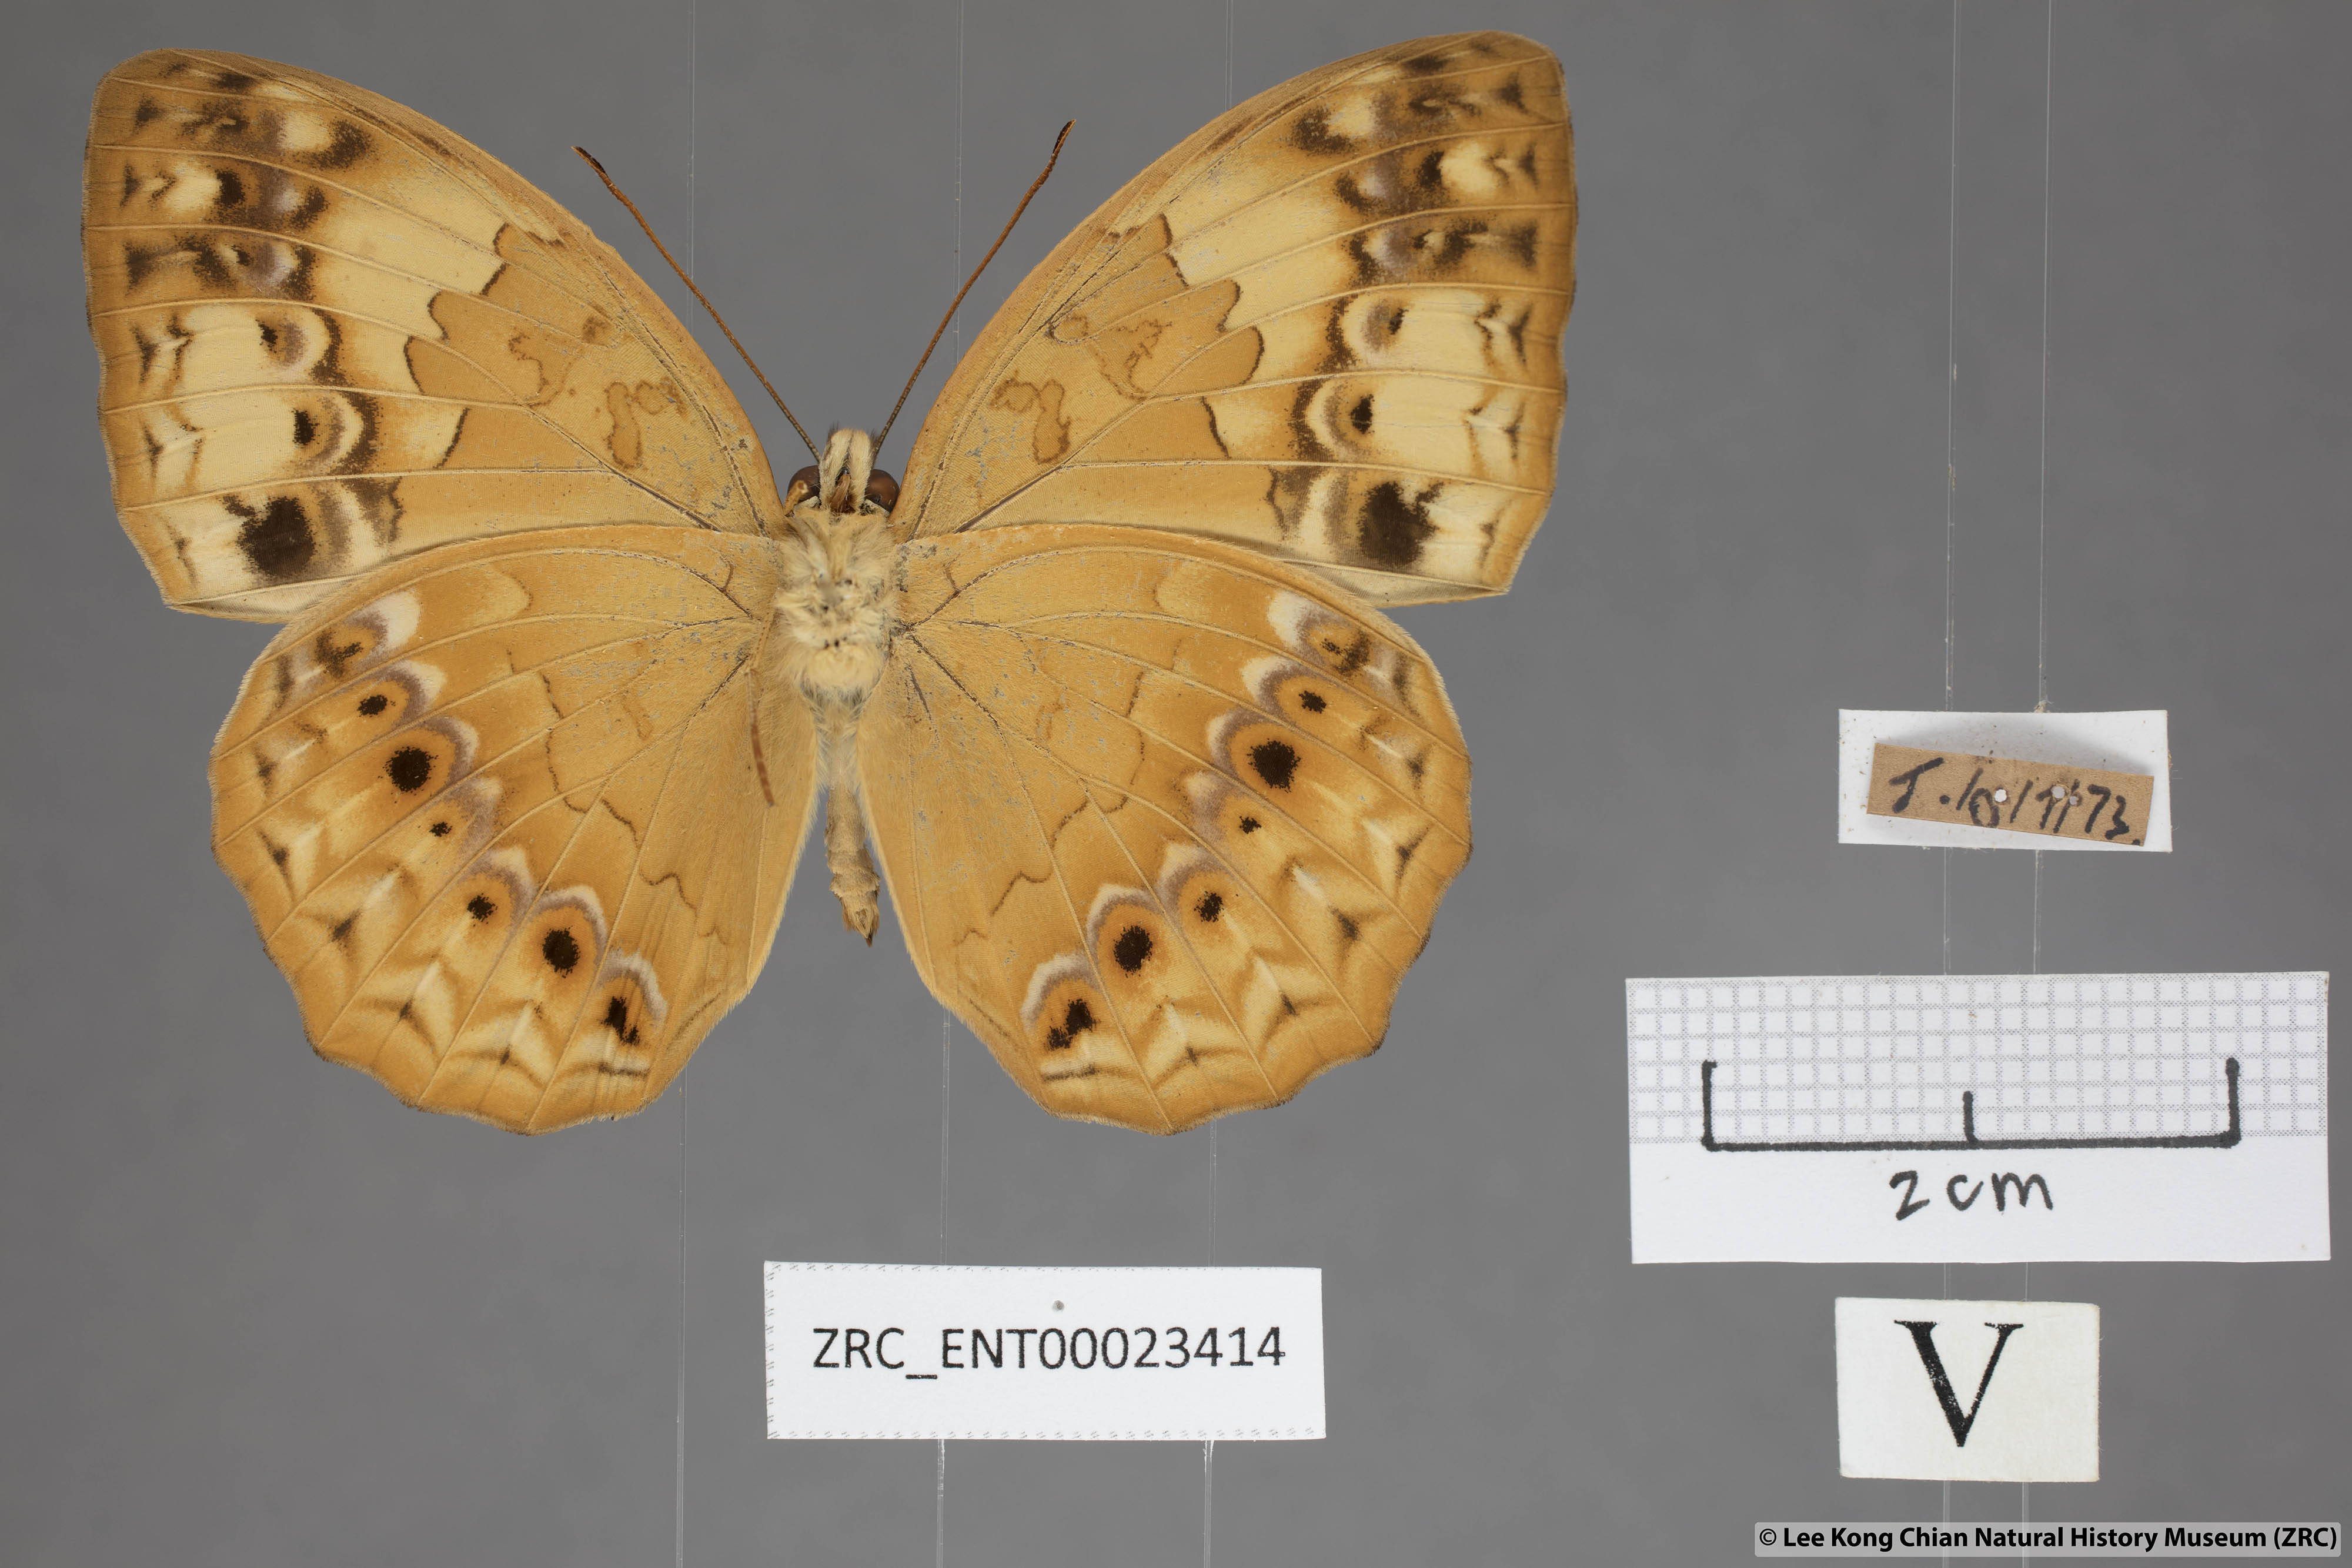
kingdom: Animalia
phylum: Arthropoda
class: Insecta
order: Lepidoptera
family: Nymphalidae
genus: Cupha
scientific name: Cupha erymanthis
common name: Rustic
